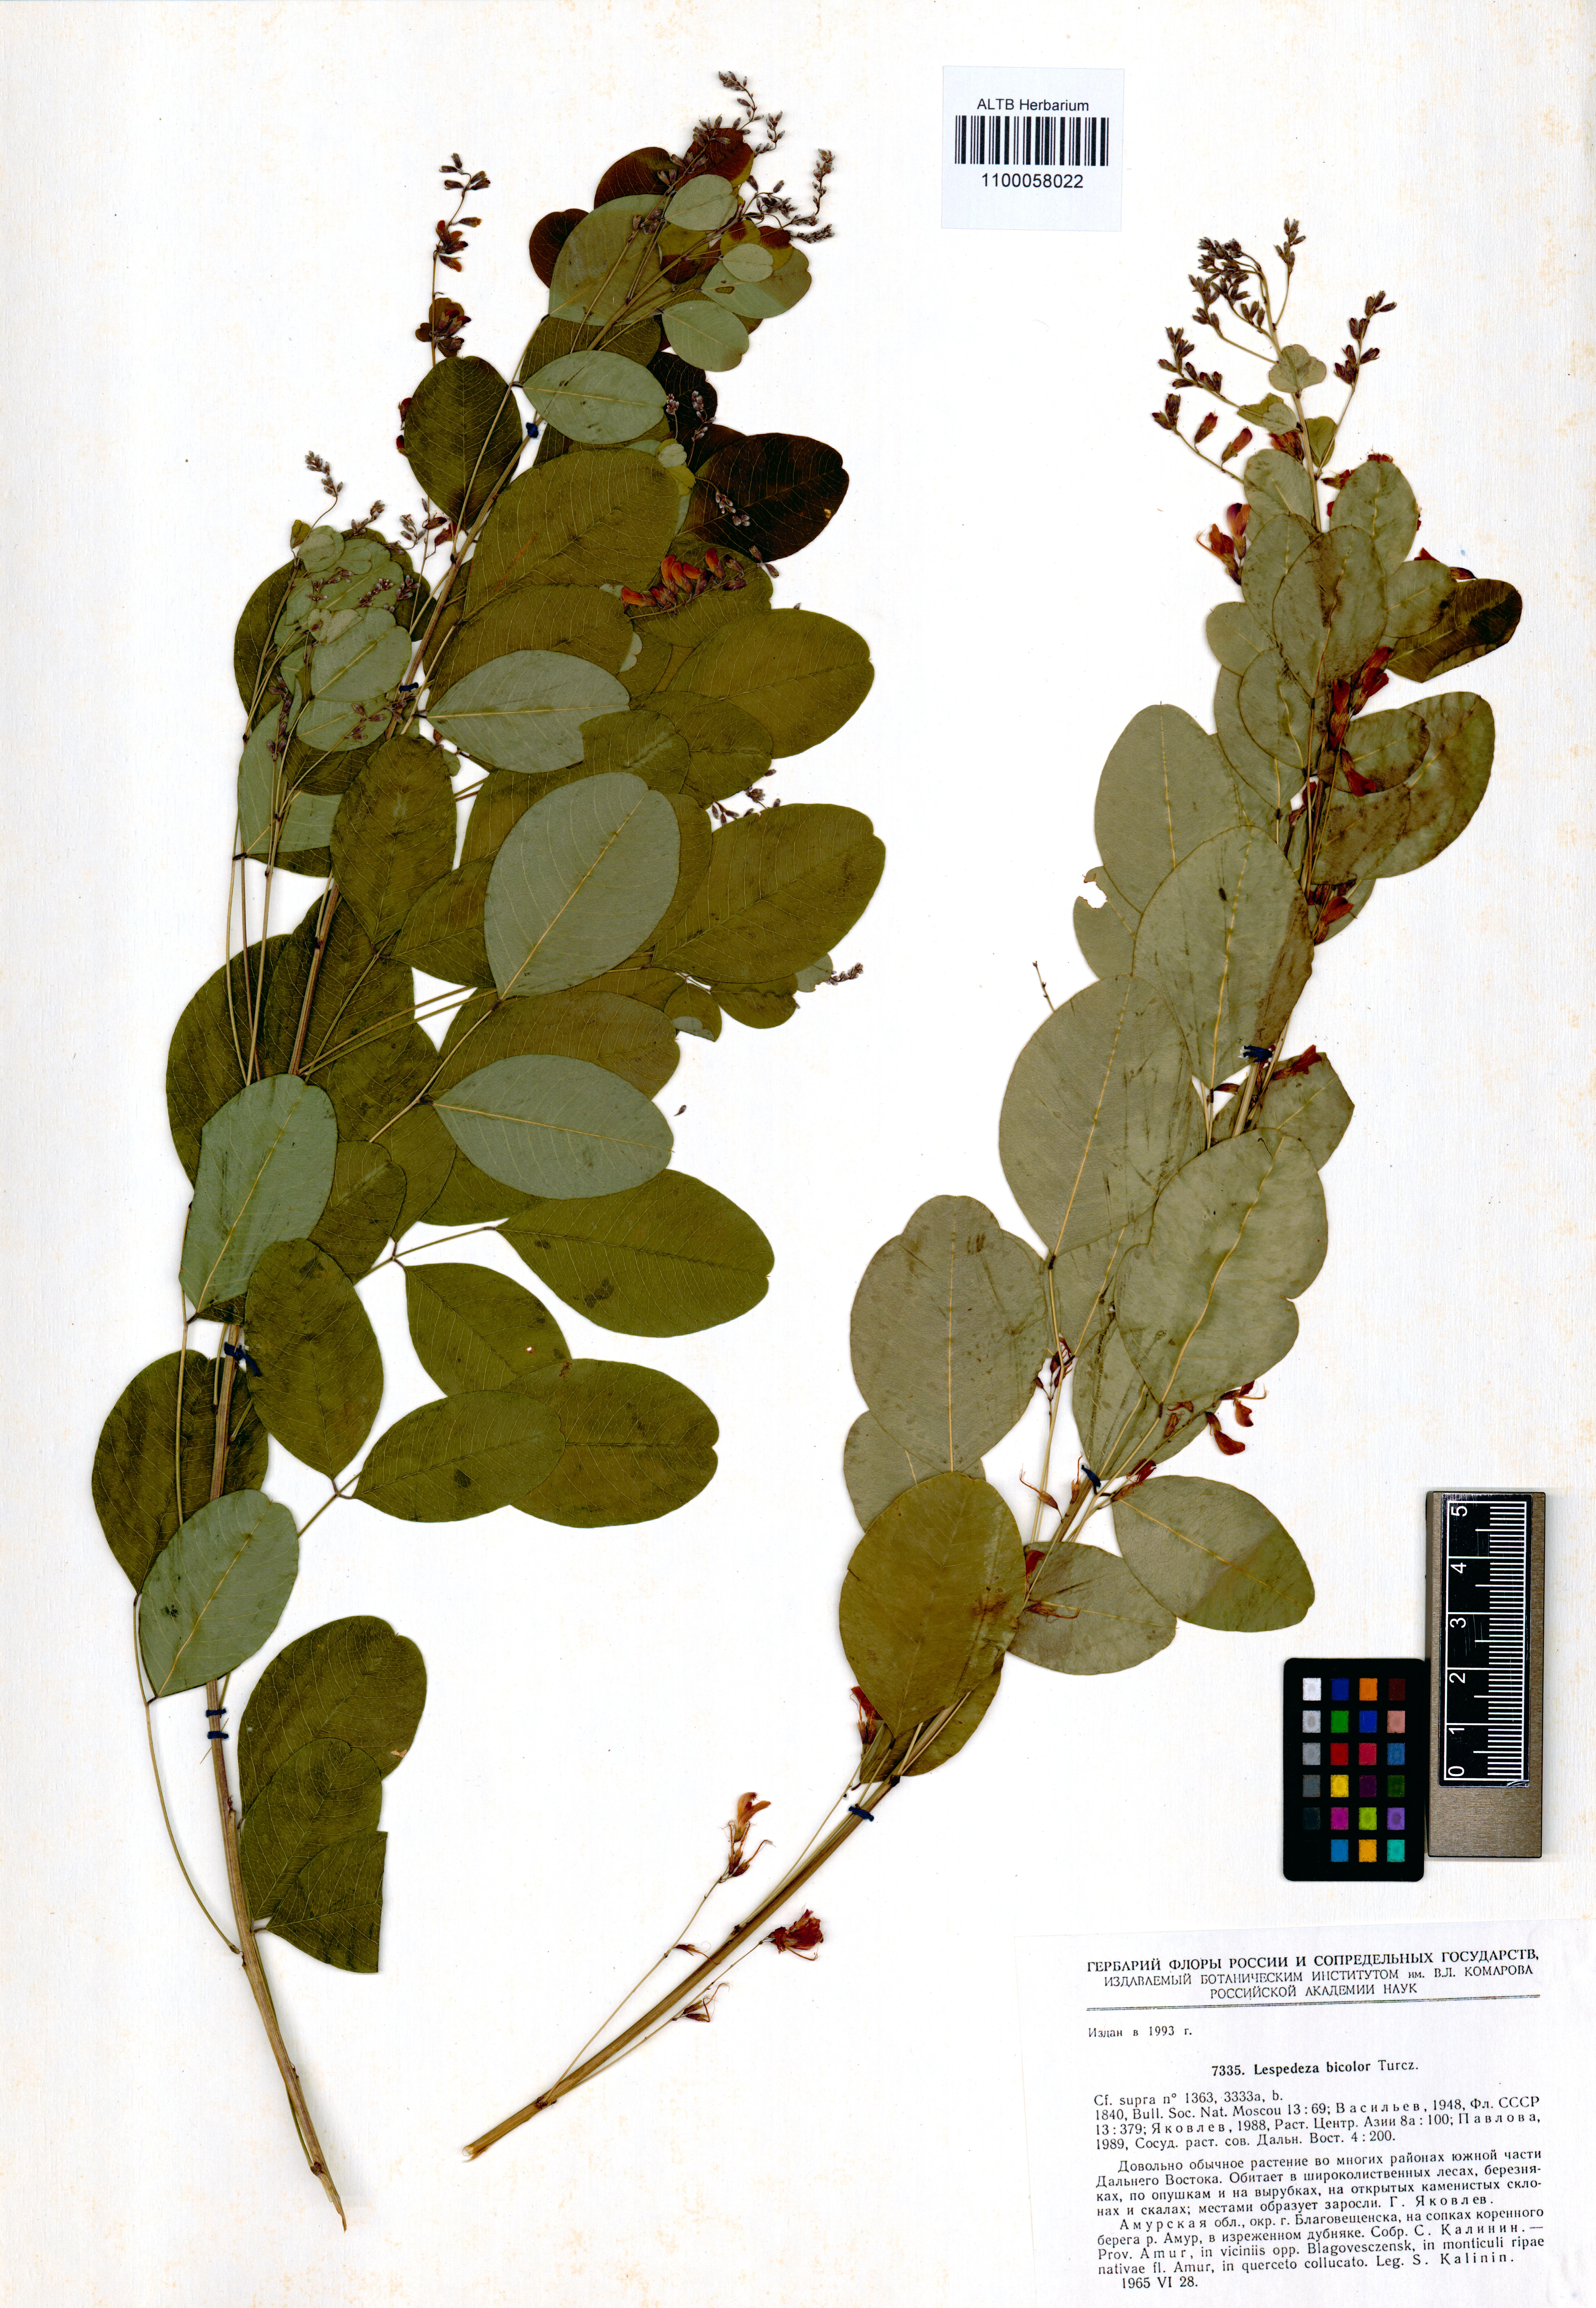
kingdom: Plantae
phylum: Tracheophyta
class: Magnoliopsida
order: Fabales
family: Fabaceae
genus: Lespedeza
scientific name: Lespedeza bicolor
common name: Shrub lespedeza
